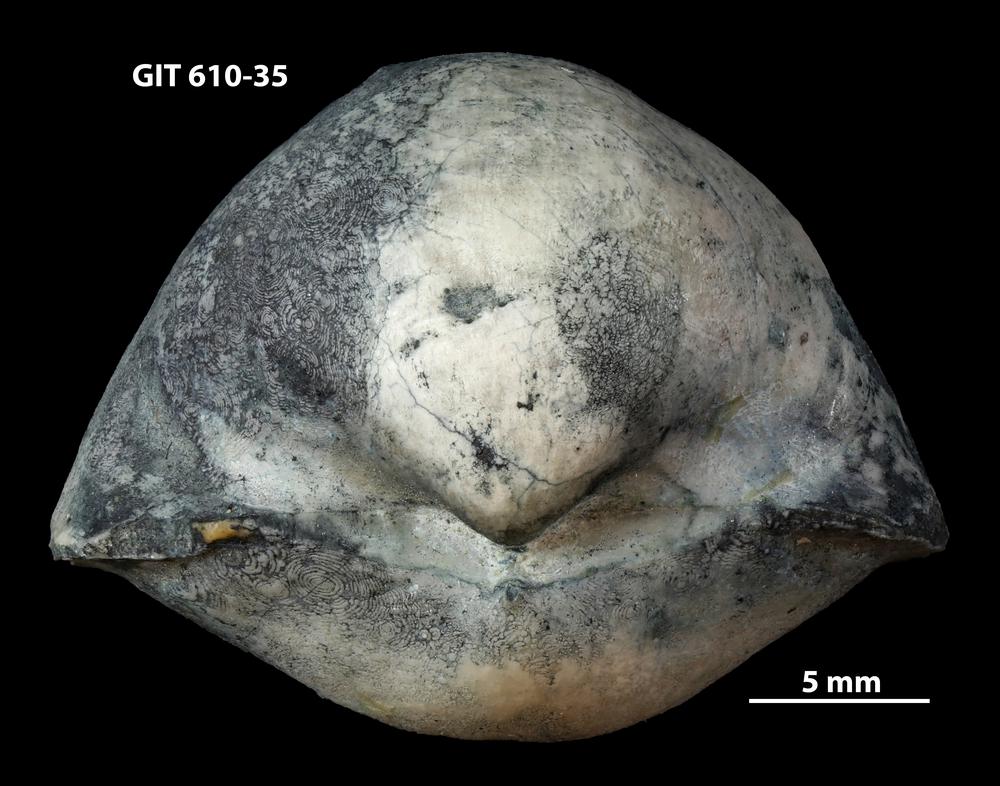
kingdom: Animalia
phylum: Brachiopoda
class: Rhynchonellata
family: Triplesiidae
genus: Triplesia
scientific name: Triplesia
